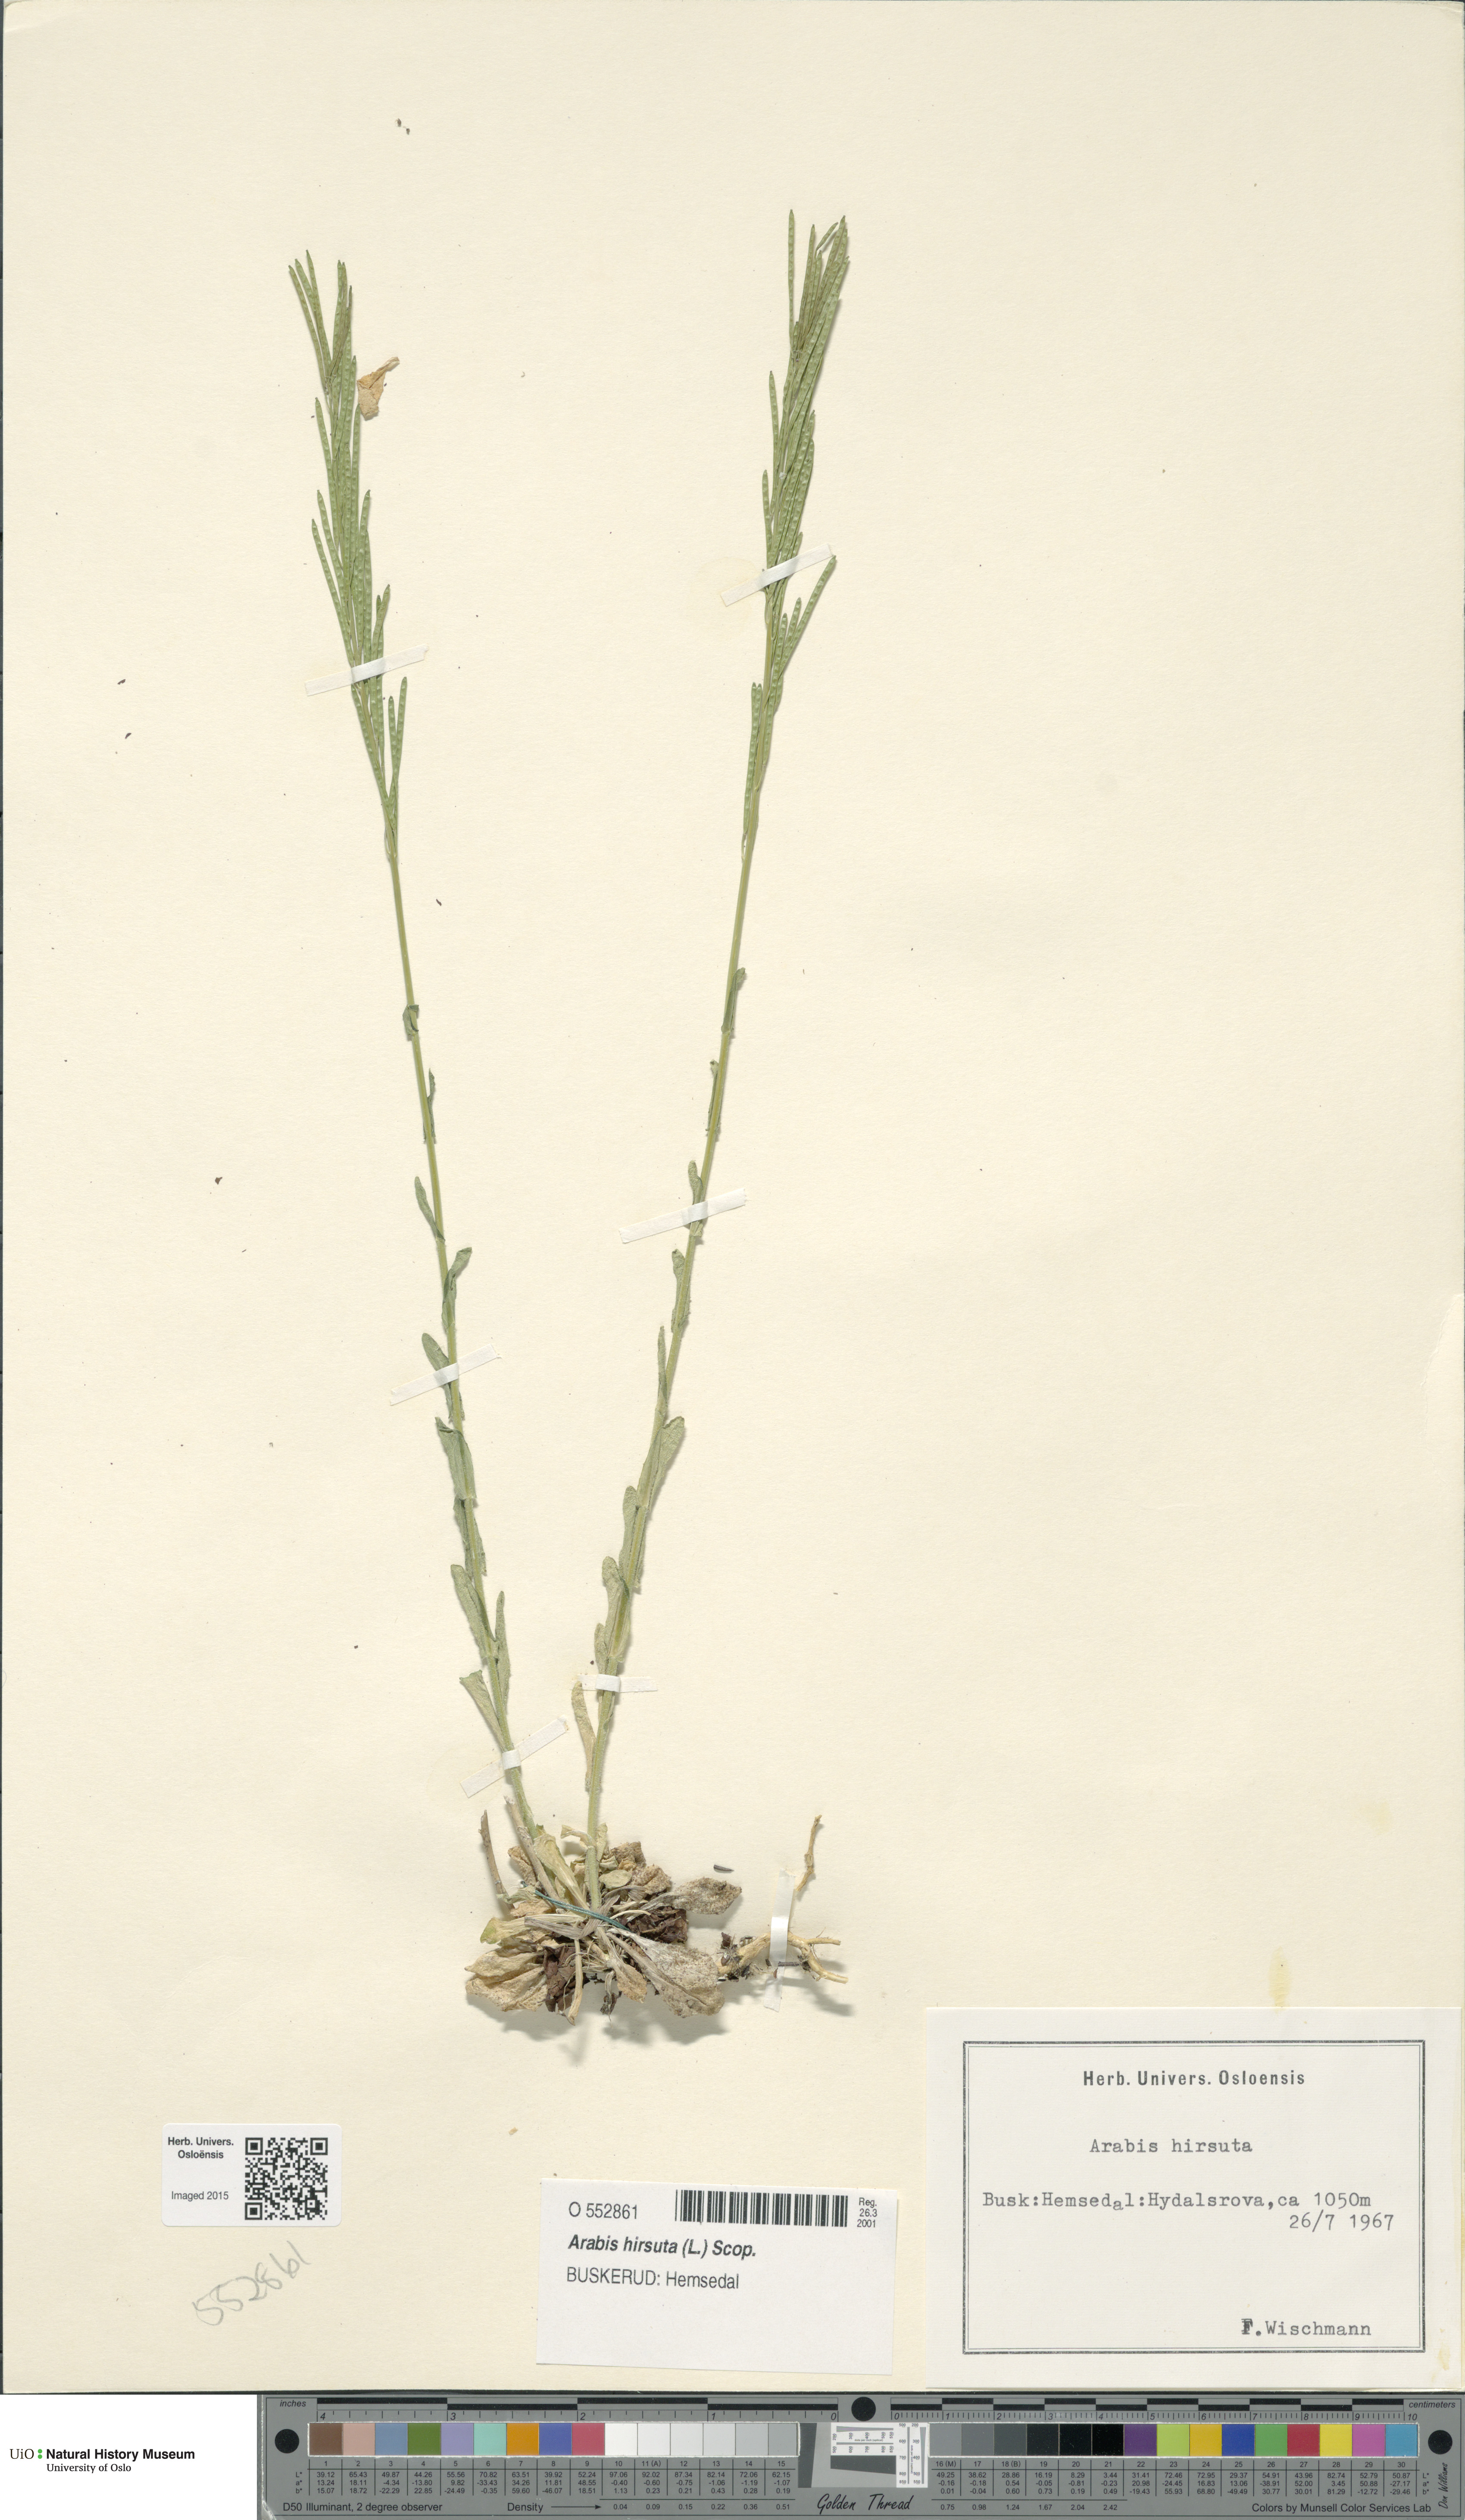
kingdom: Plantae
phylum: Tracheophyta
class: Magnoliopsida
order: Brassicales
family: Brassicaceae
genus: Arabis
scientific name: Arabis hirsuta
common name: Hairy rock-cress
